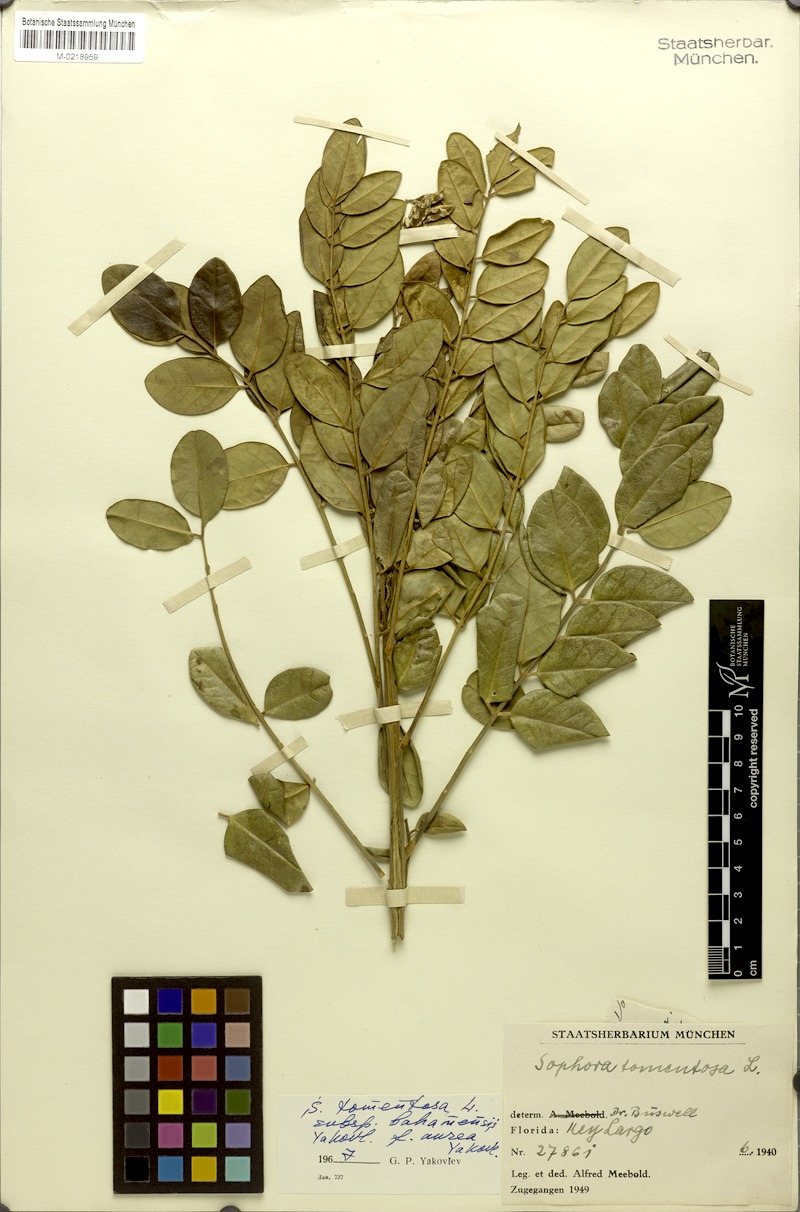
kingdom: Plantae
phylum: Tracheophyta
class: Magnoliopsida
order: Fabales
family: Fabaceae
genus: Sophora
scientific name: Sophora tomentosa
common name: Yellow necklacepod
